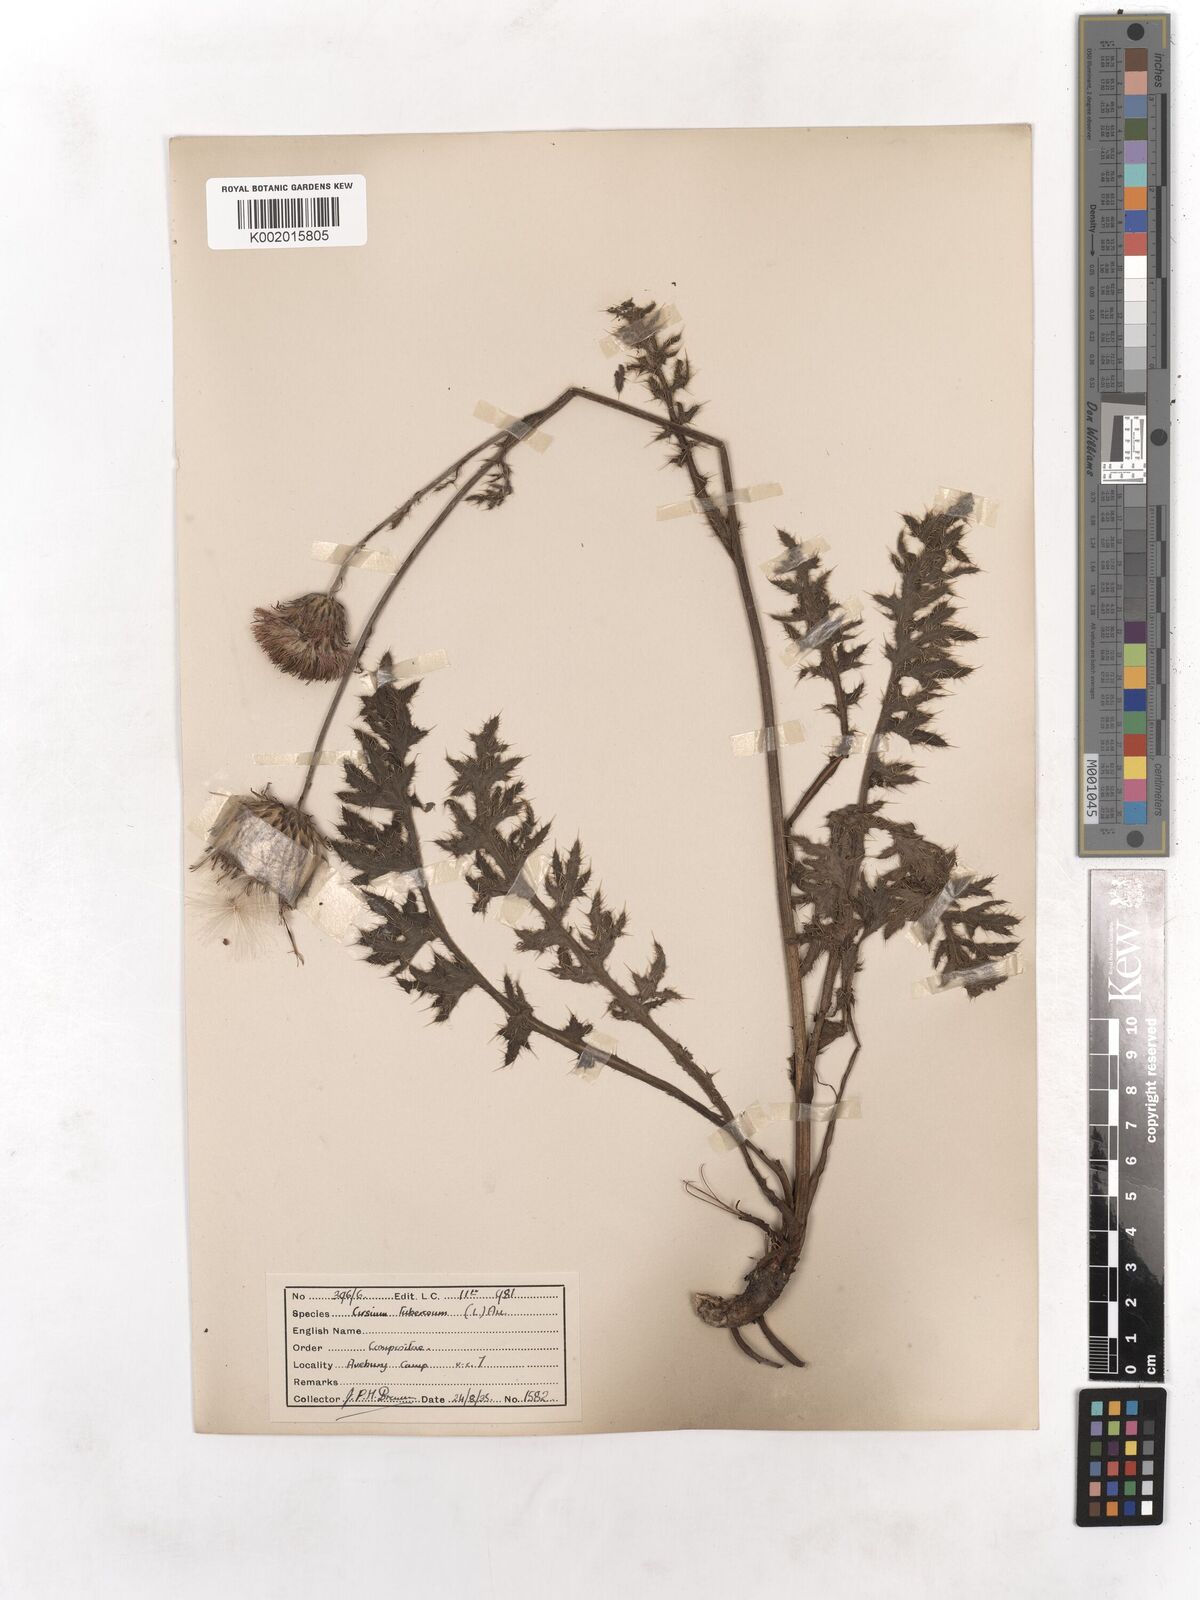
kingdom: Plantae
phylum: Tracheophyta
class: Magnoliopsida
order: Asterales
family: Asteraceae
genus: Cirsium
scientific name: Cirsium tuberosum
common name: Tuberous thistle
